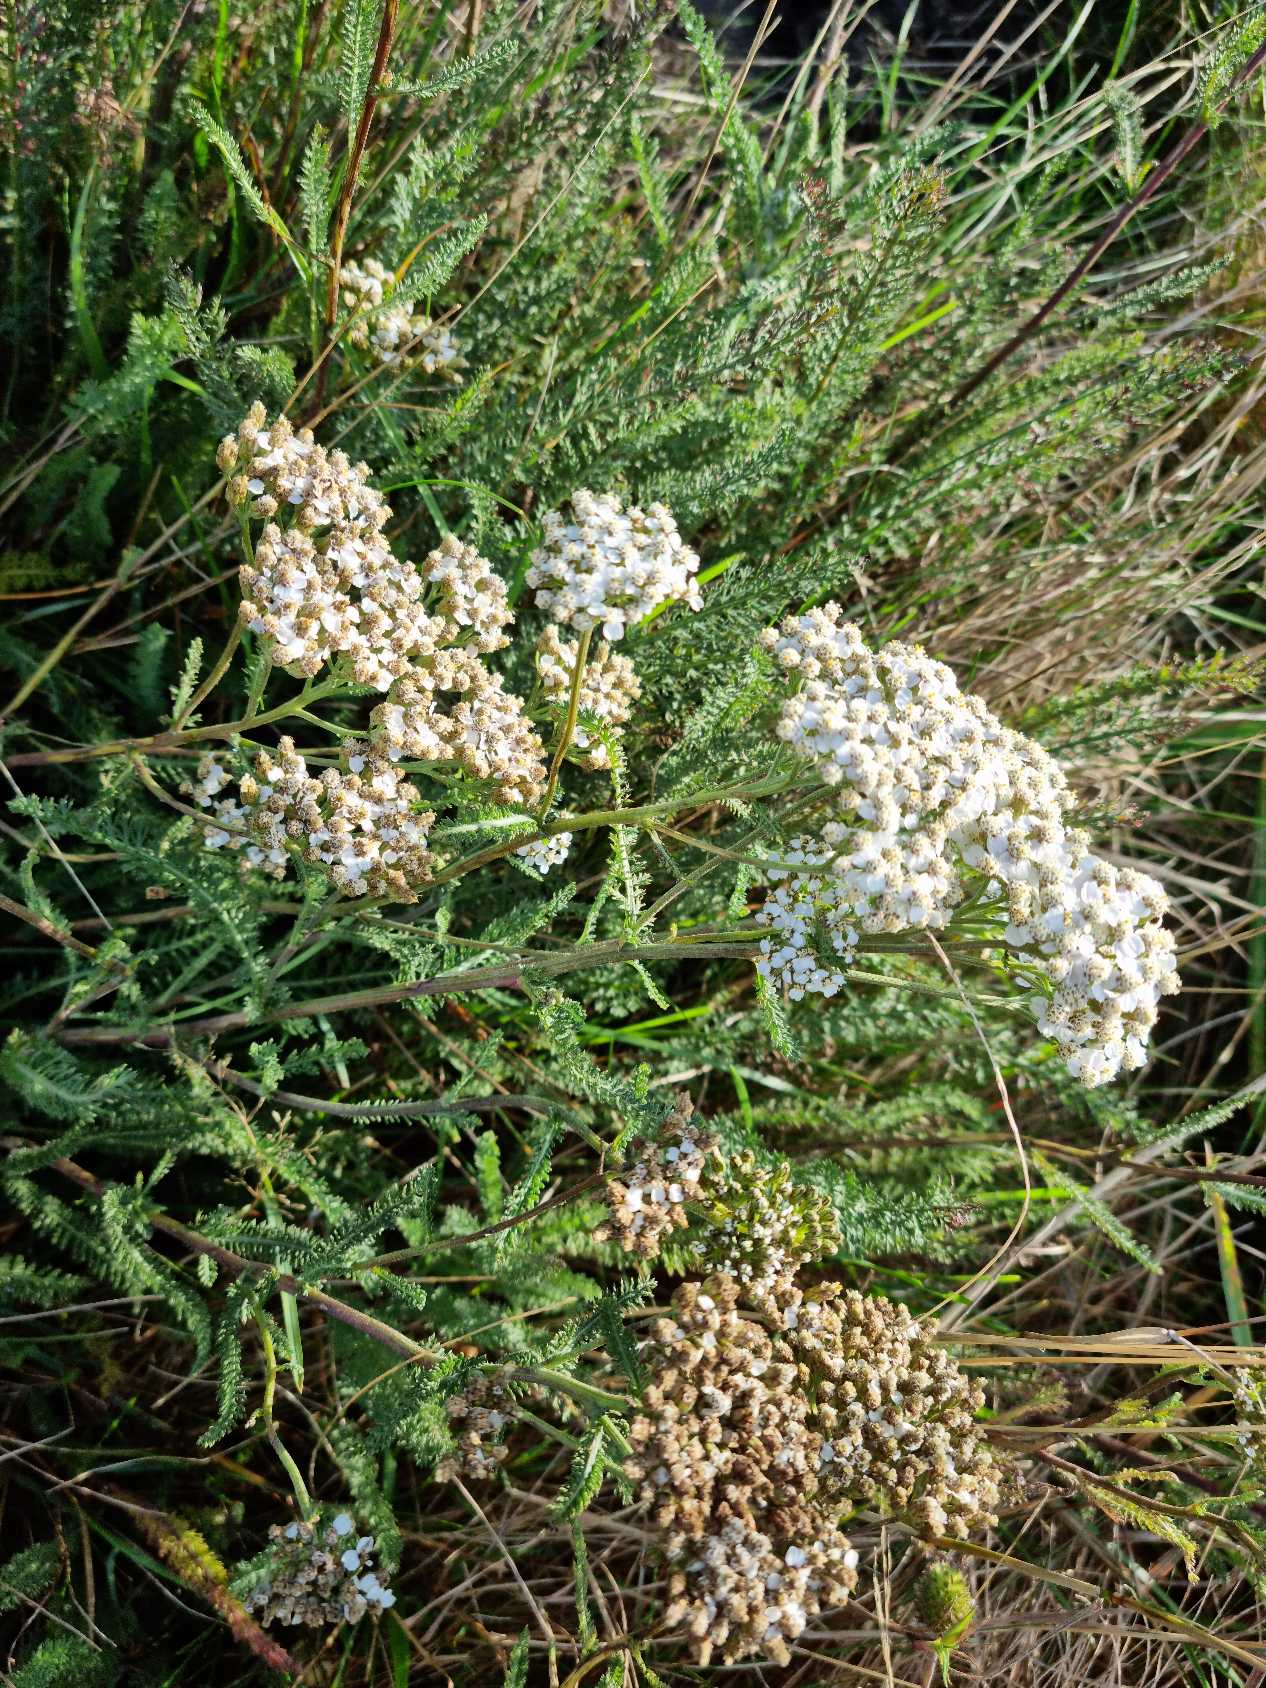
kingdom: Plantae
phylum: Tracheophyta
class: Magnoliopsida
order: Asterales
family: Asteraceae
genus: Achillea
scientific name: Achillea millefolium
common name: Almindelig røllike
